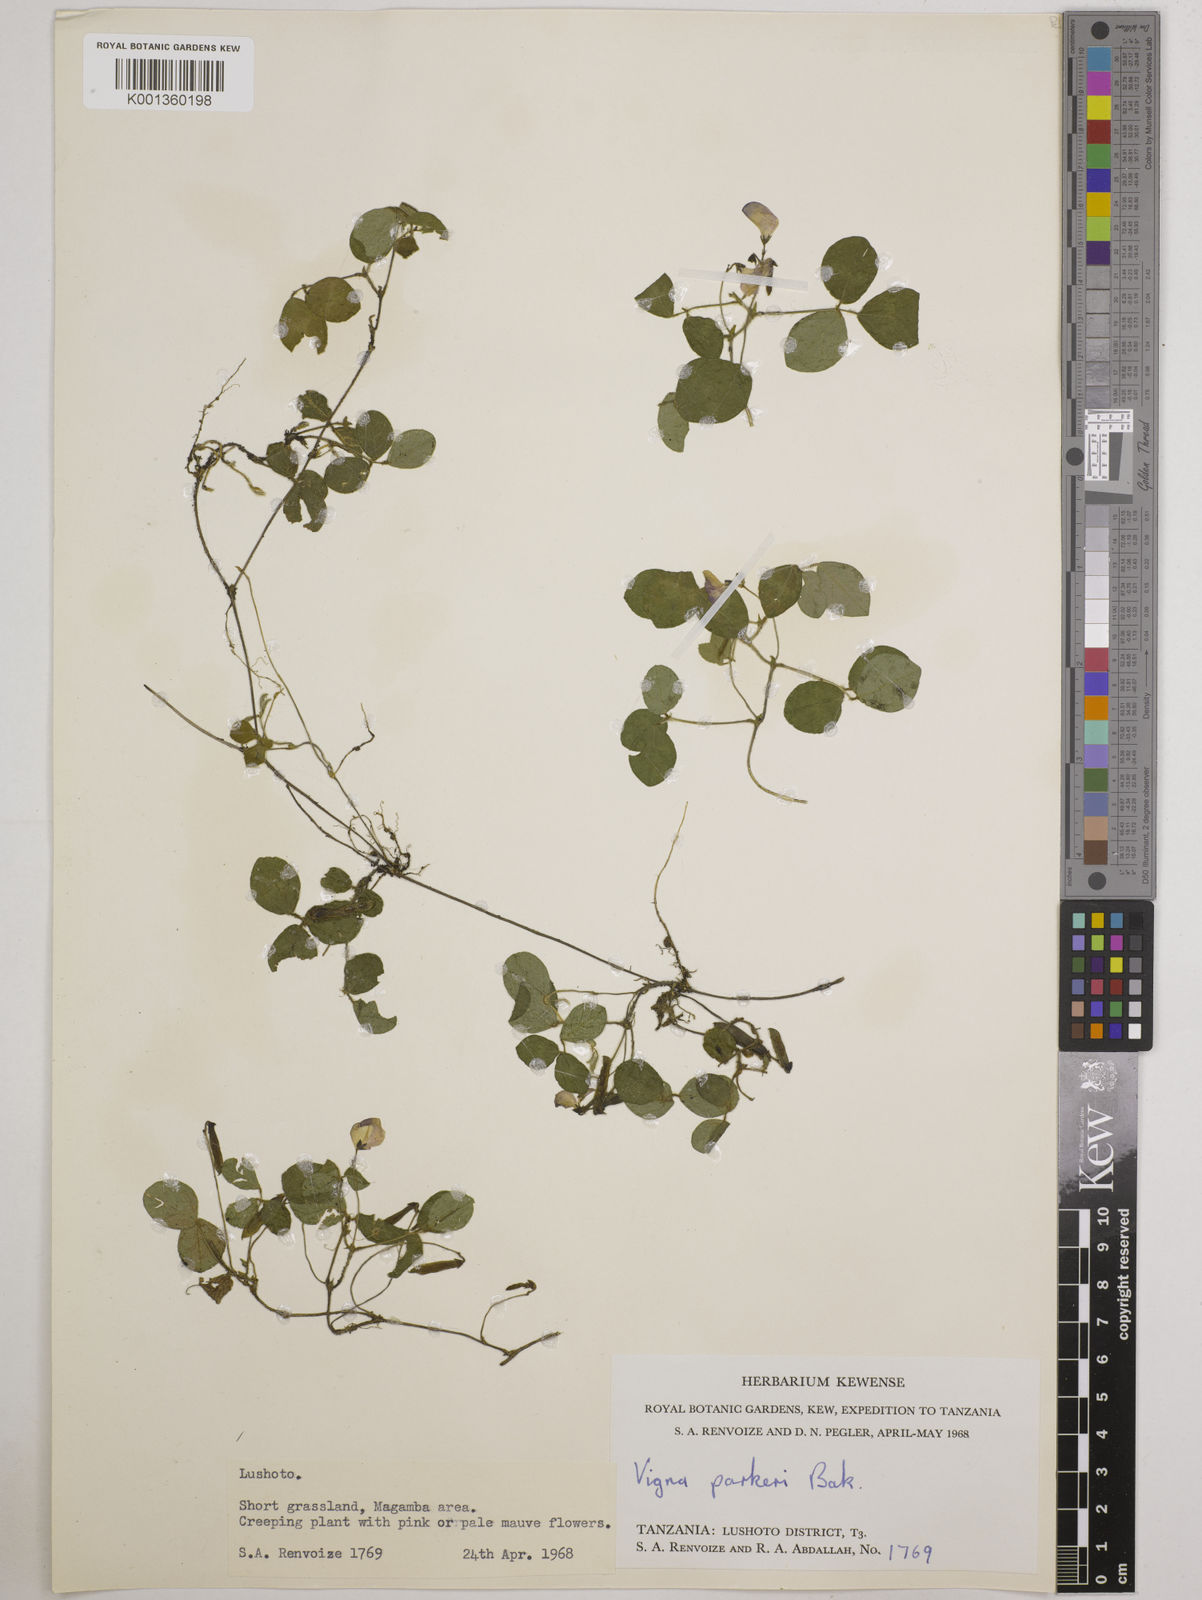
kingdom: Plantae
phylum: Tracheophyta
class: Magnoliopsida
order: Fabales
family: Fabaceae
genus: Vigna
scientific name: Vigna
